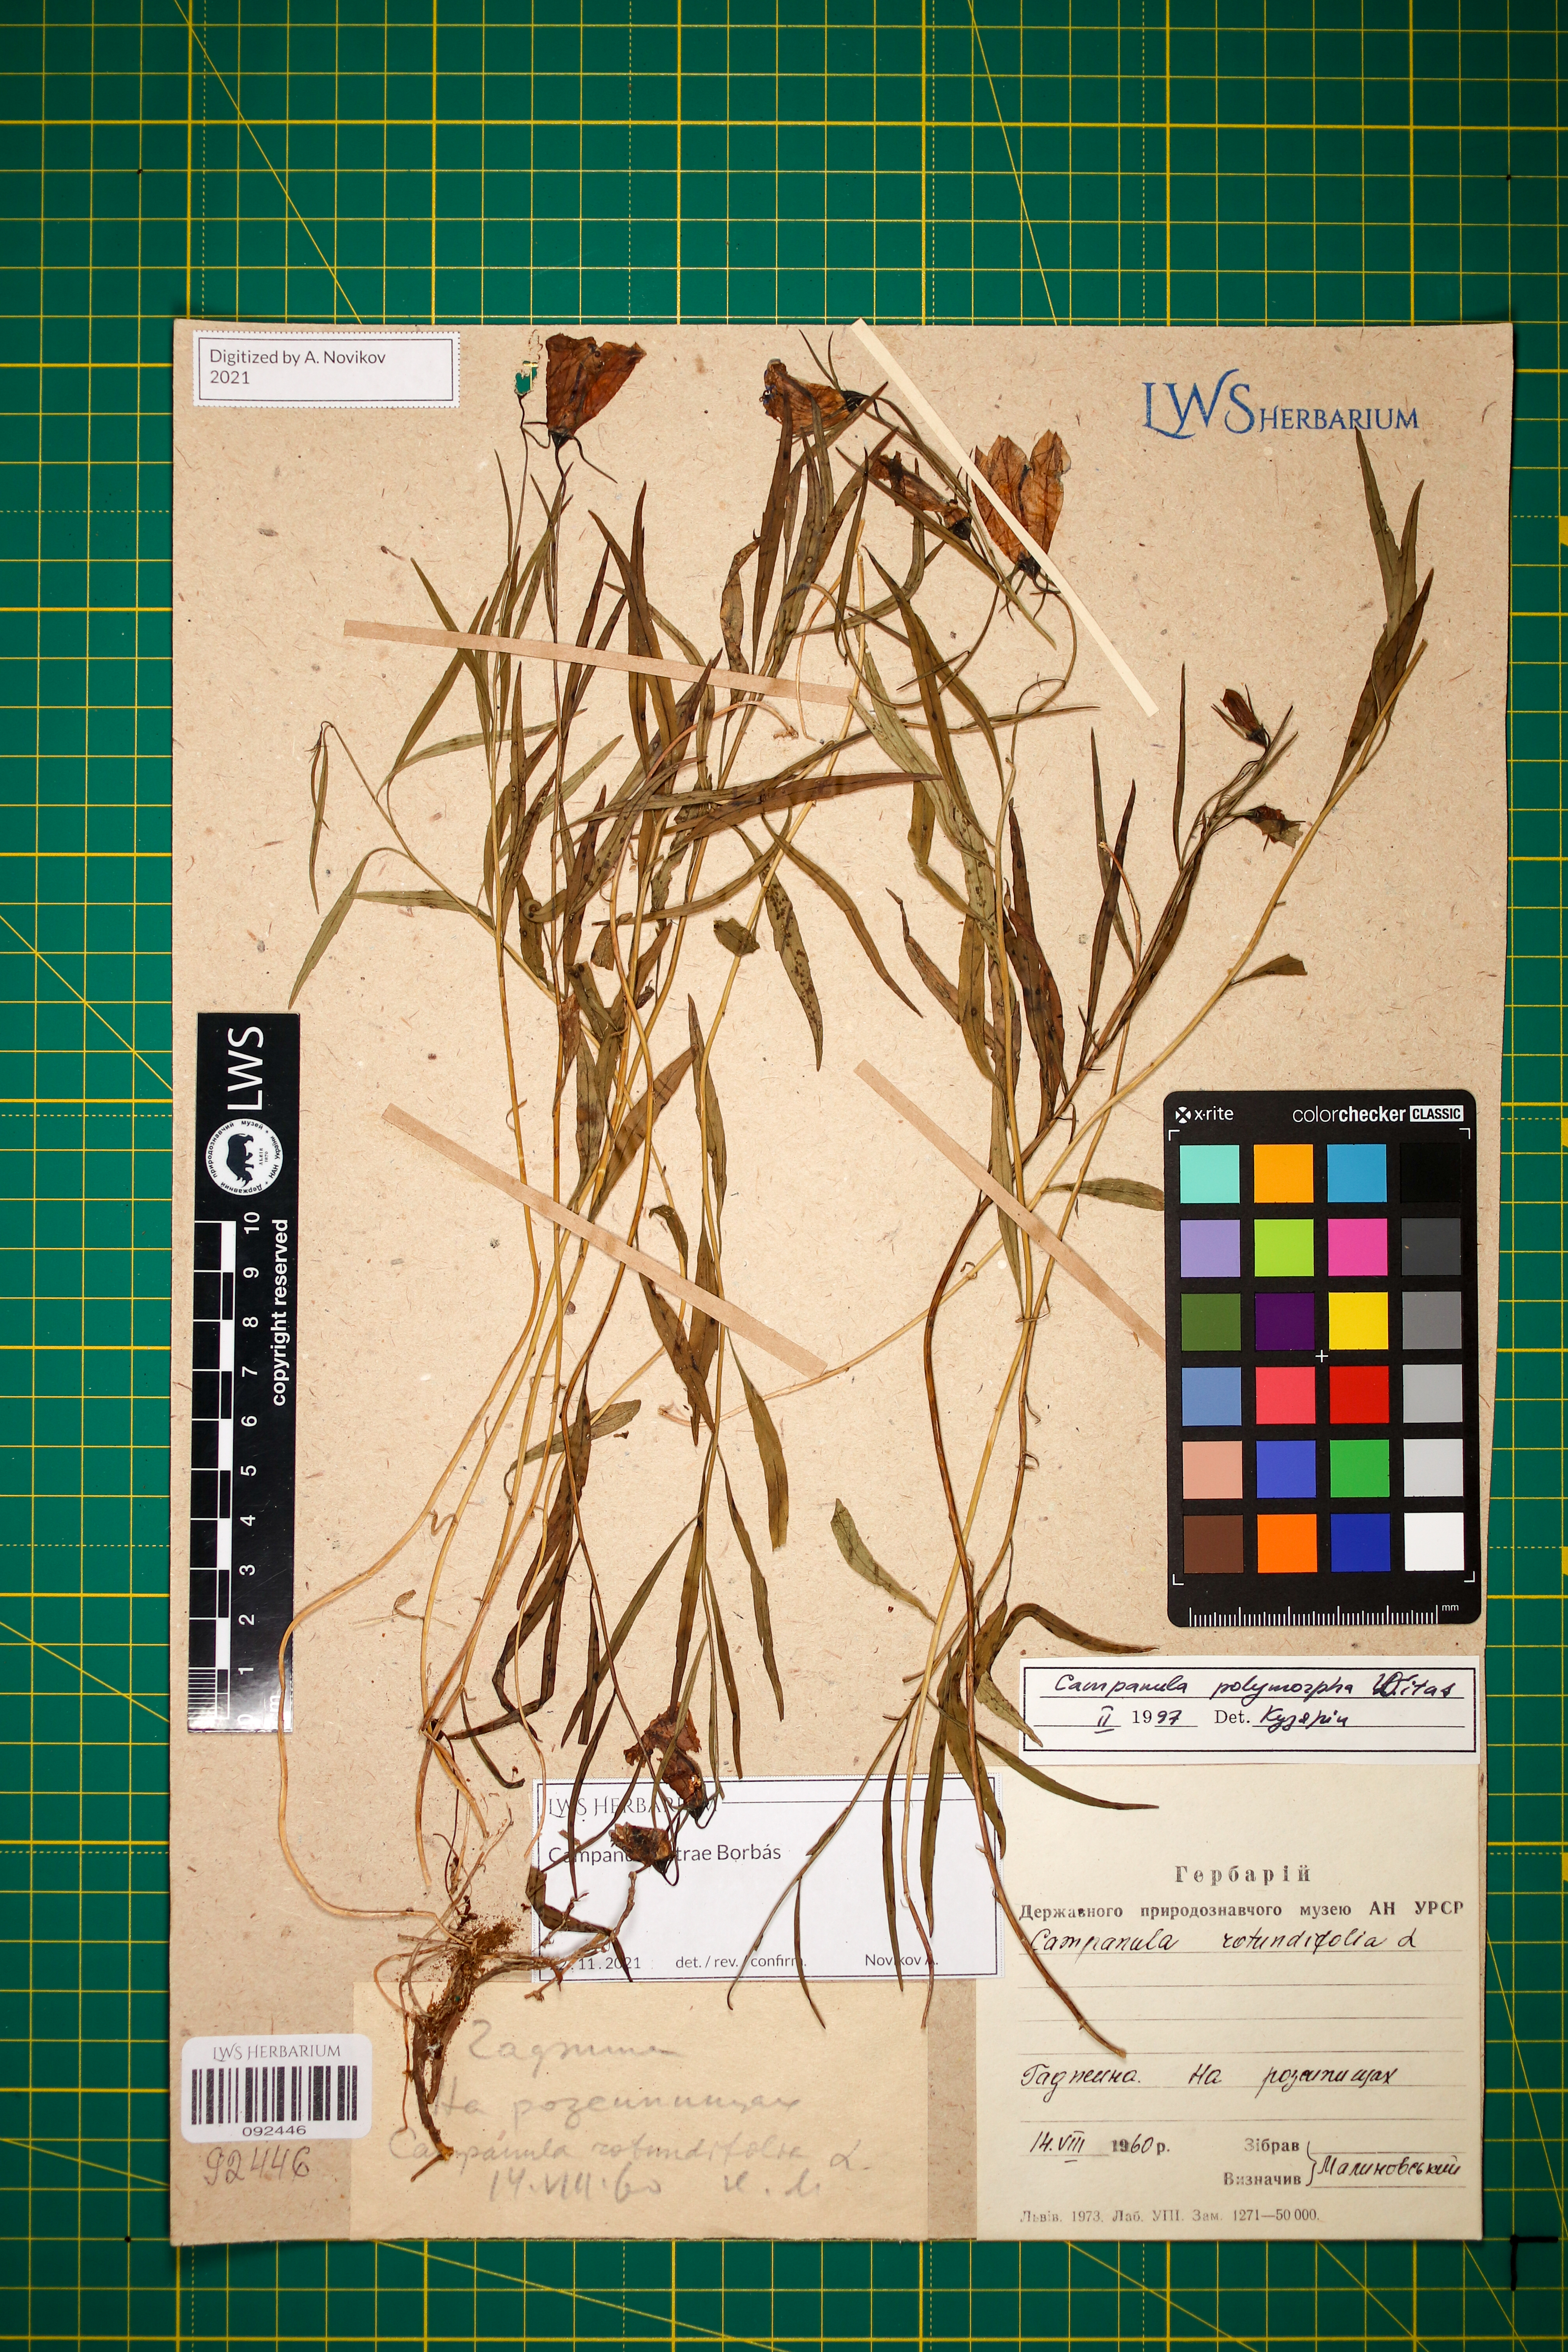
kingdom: Plantae
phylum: Tracheophyta
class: Magnoliopsida
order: Asterales
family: Campanulaceae
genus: Campanula
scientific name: Campanula tatrae
